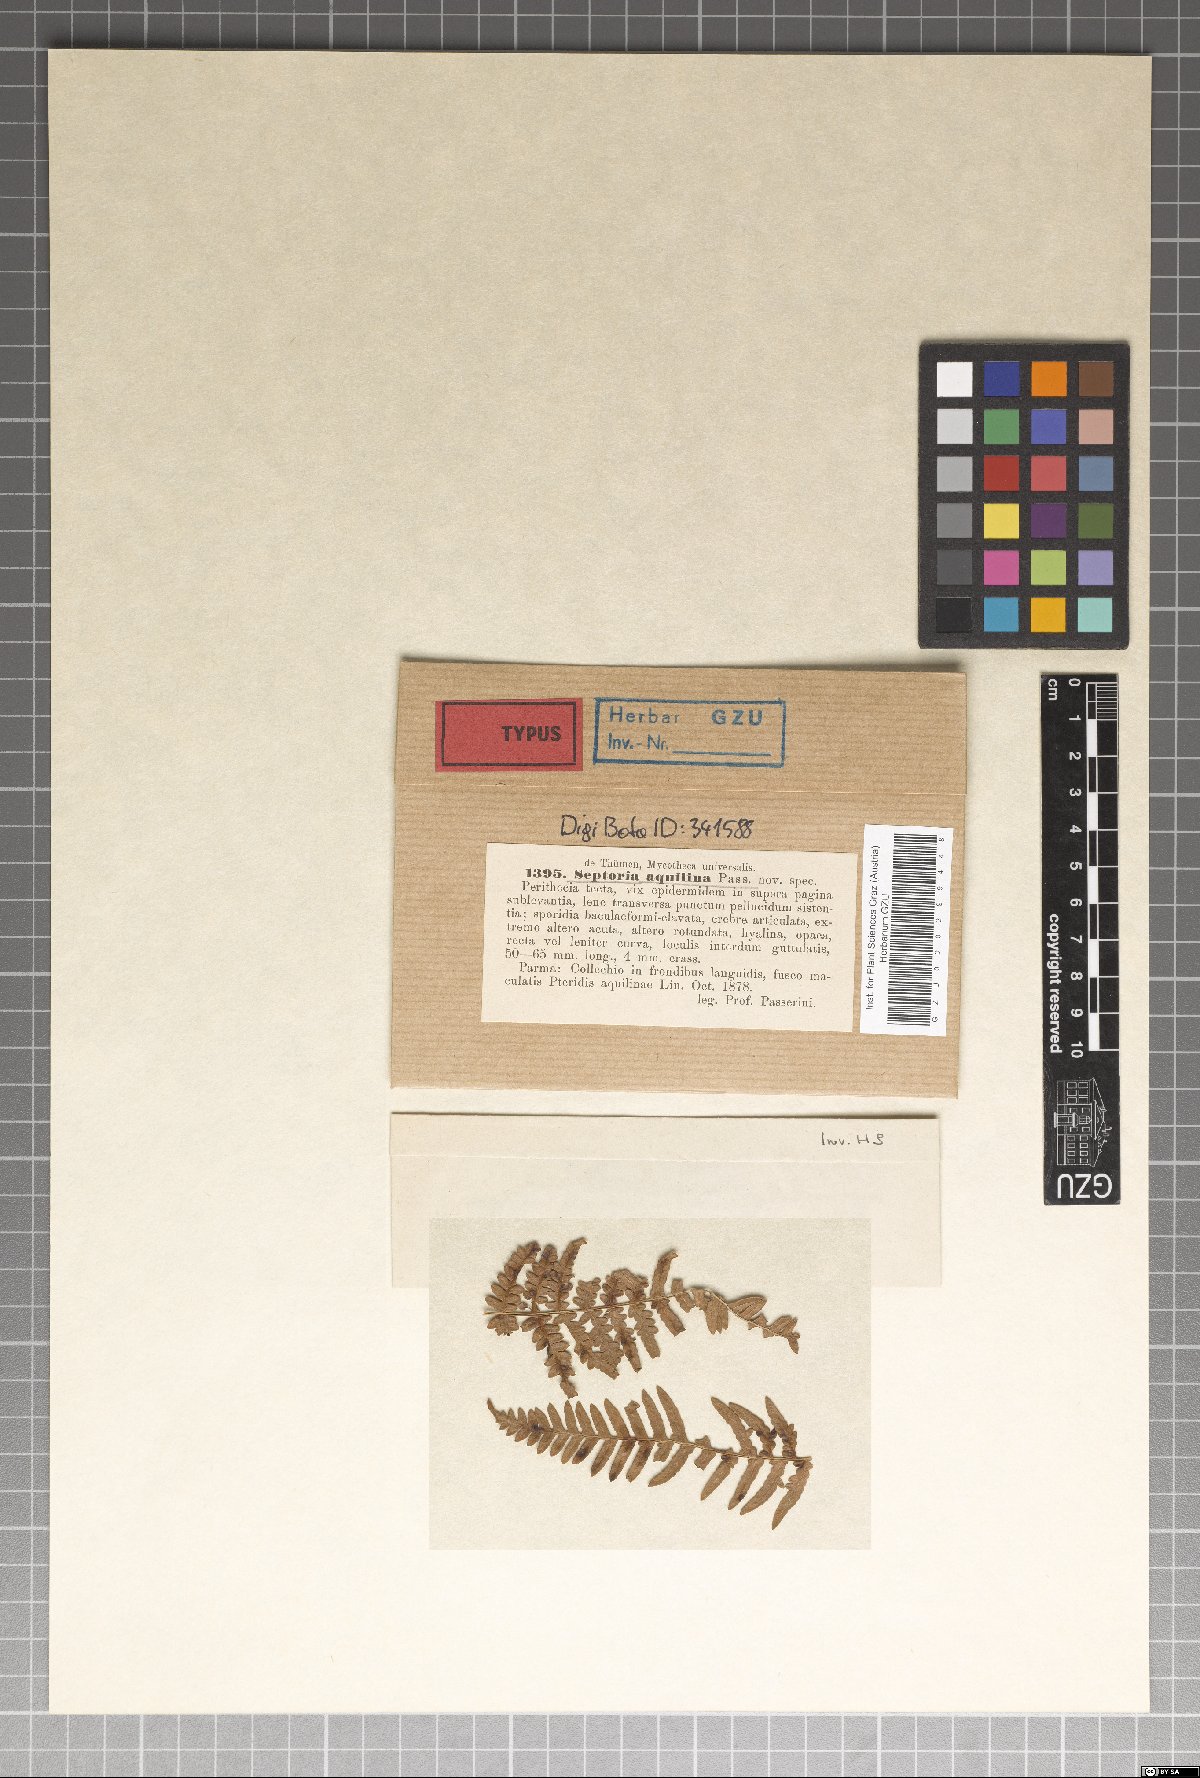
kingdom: Fungi
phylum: Ascomycota
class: Leotiomycetes
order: Helotiales
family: Ploettnerulaceae
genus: Cylindrosporium
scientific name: Cylindrosporium aquilinum
